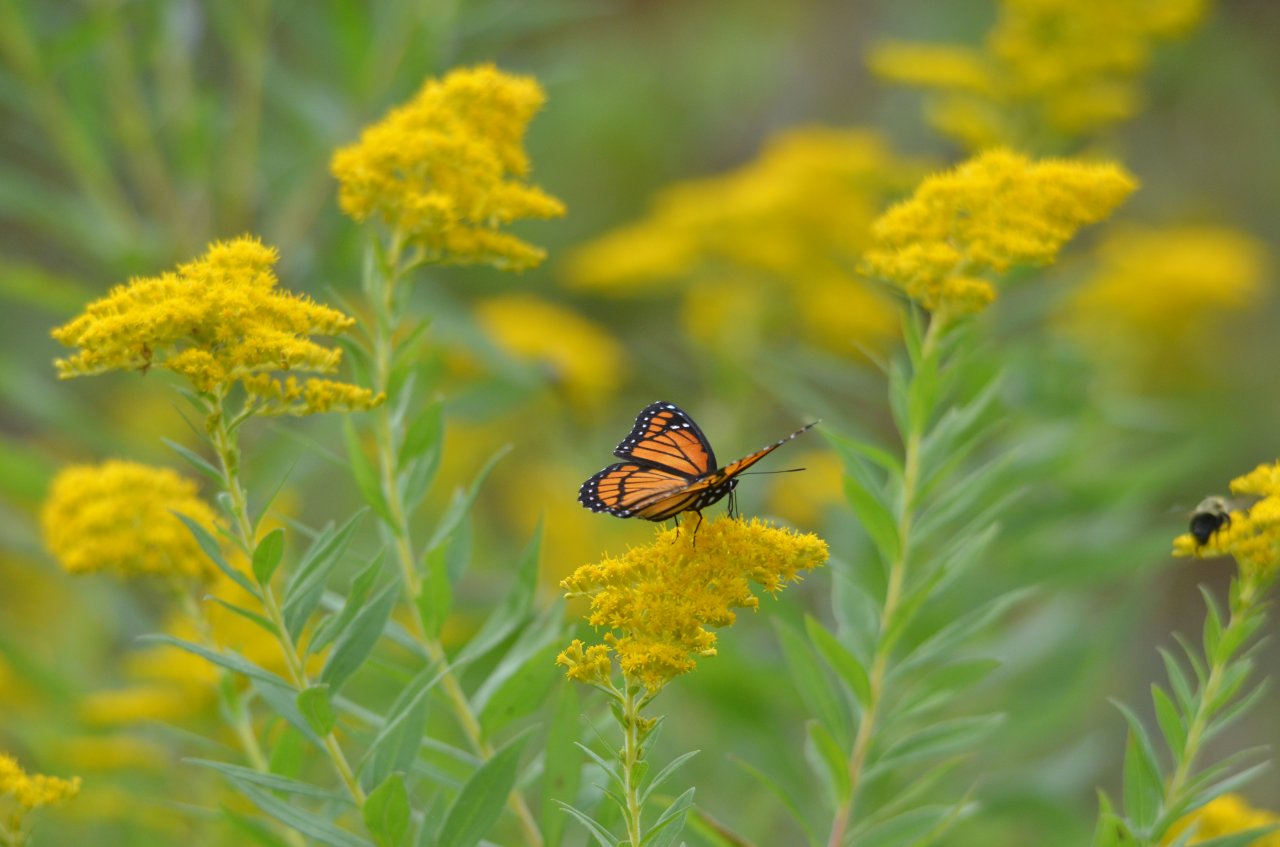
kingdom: Animalia
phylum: Arthropoda
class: Insecta
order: Lepidoptera
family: Nymphalidae
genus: Limenitis
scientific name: Limenitis archippus
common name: Viceroy
